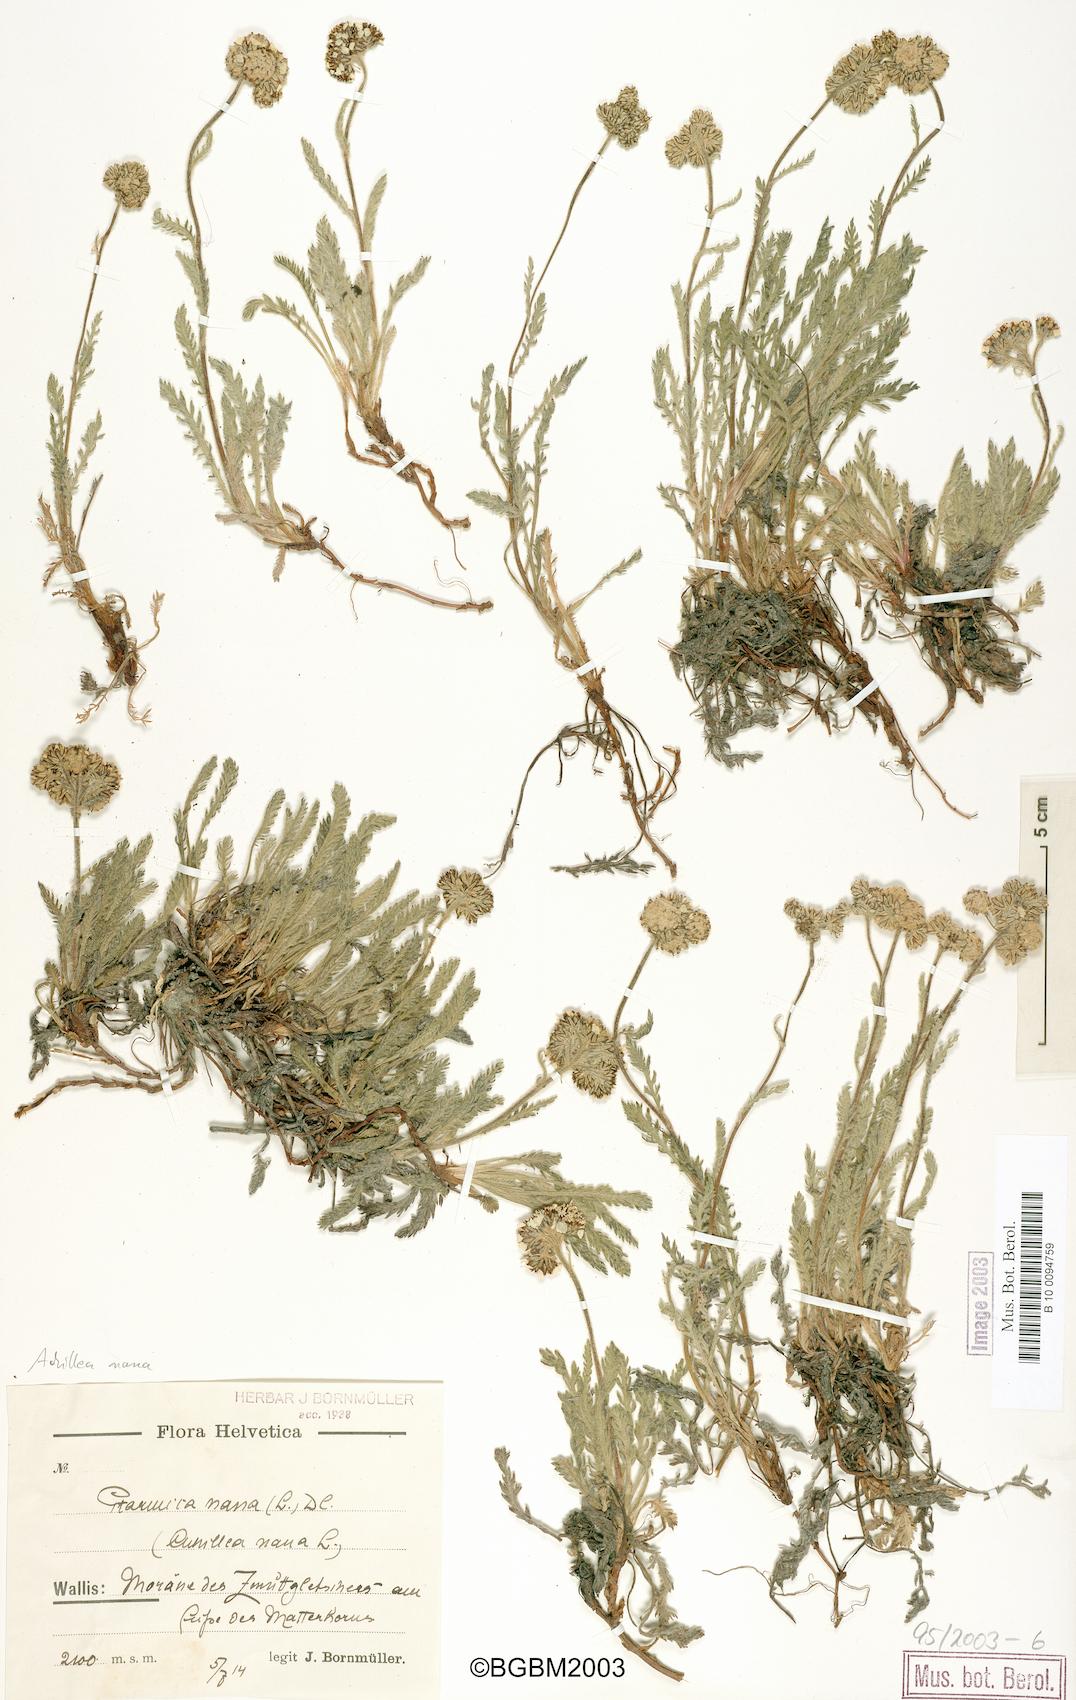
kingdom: Plantae
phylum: Tracheophyta
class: Magnoliopsida
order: Asterales
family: Asteraceae
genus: Achillea
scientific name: Achillea nana
